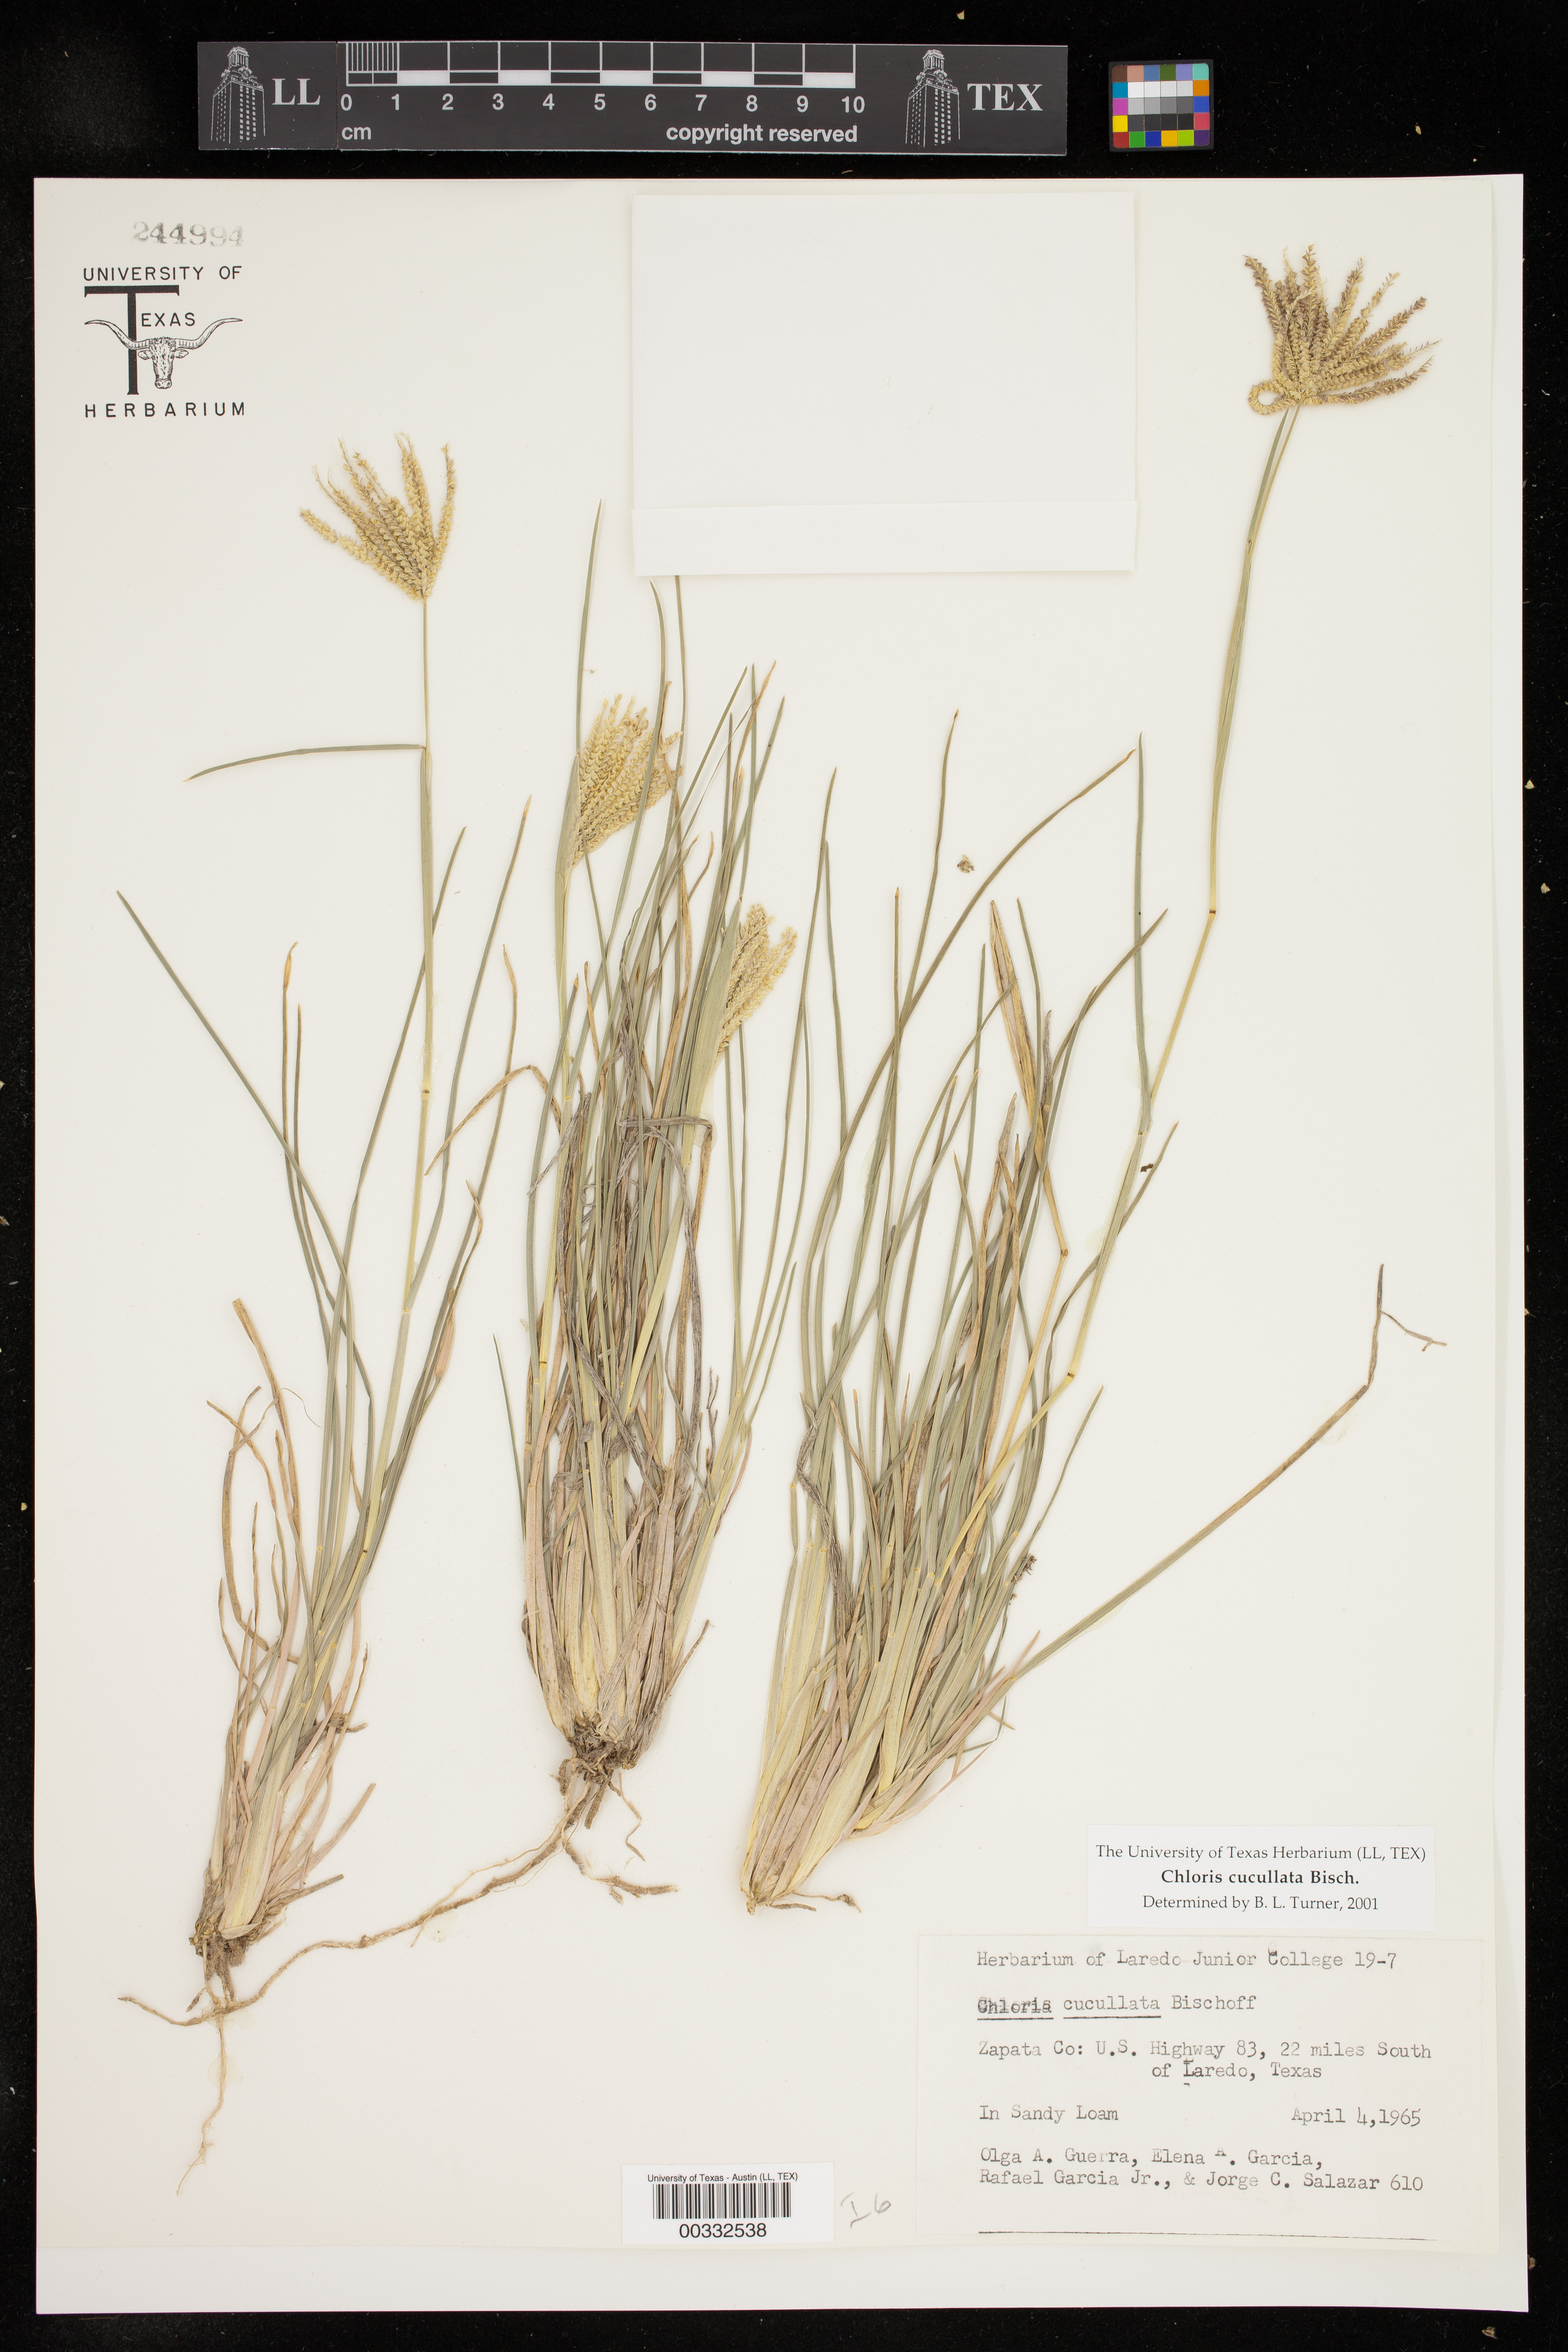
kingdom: Plantae
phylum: Tracheophyta
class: Liliopsida
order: Poales
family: Poaceae
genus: Chloris
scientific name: Chloris cucullata
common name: Hooded windmill grass
